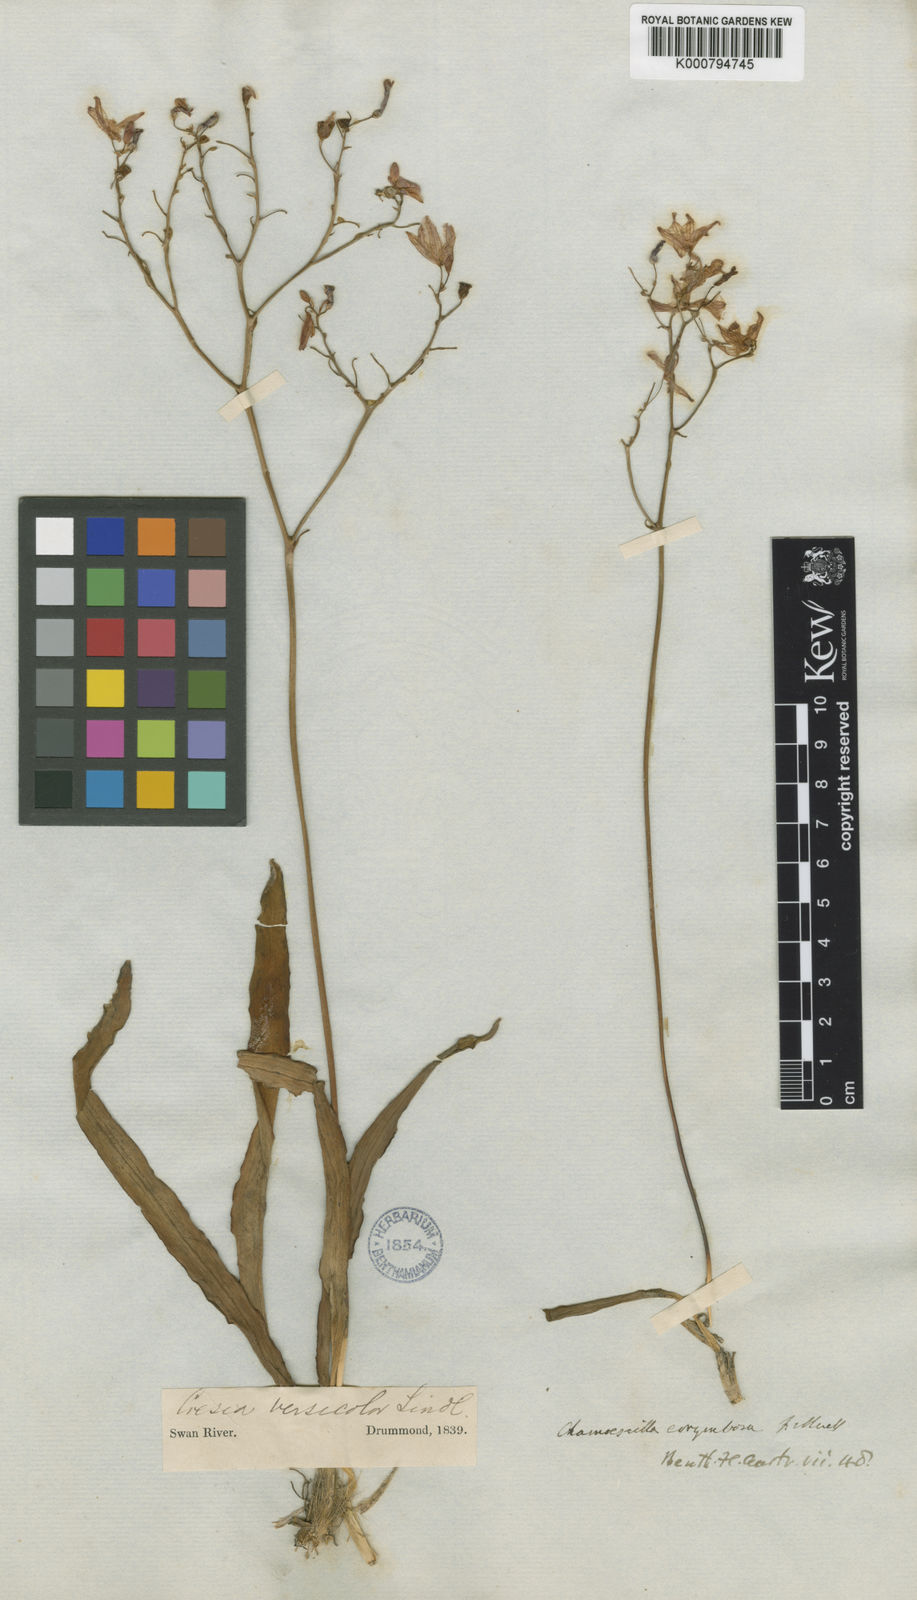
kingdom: Plantae
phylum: Tracheophyta
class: Liliopsida
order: Asparagales
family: Asphodelaceae
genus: Chamaescilla
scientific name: Chamaescilla corymbosa
